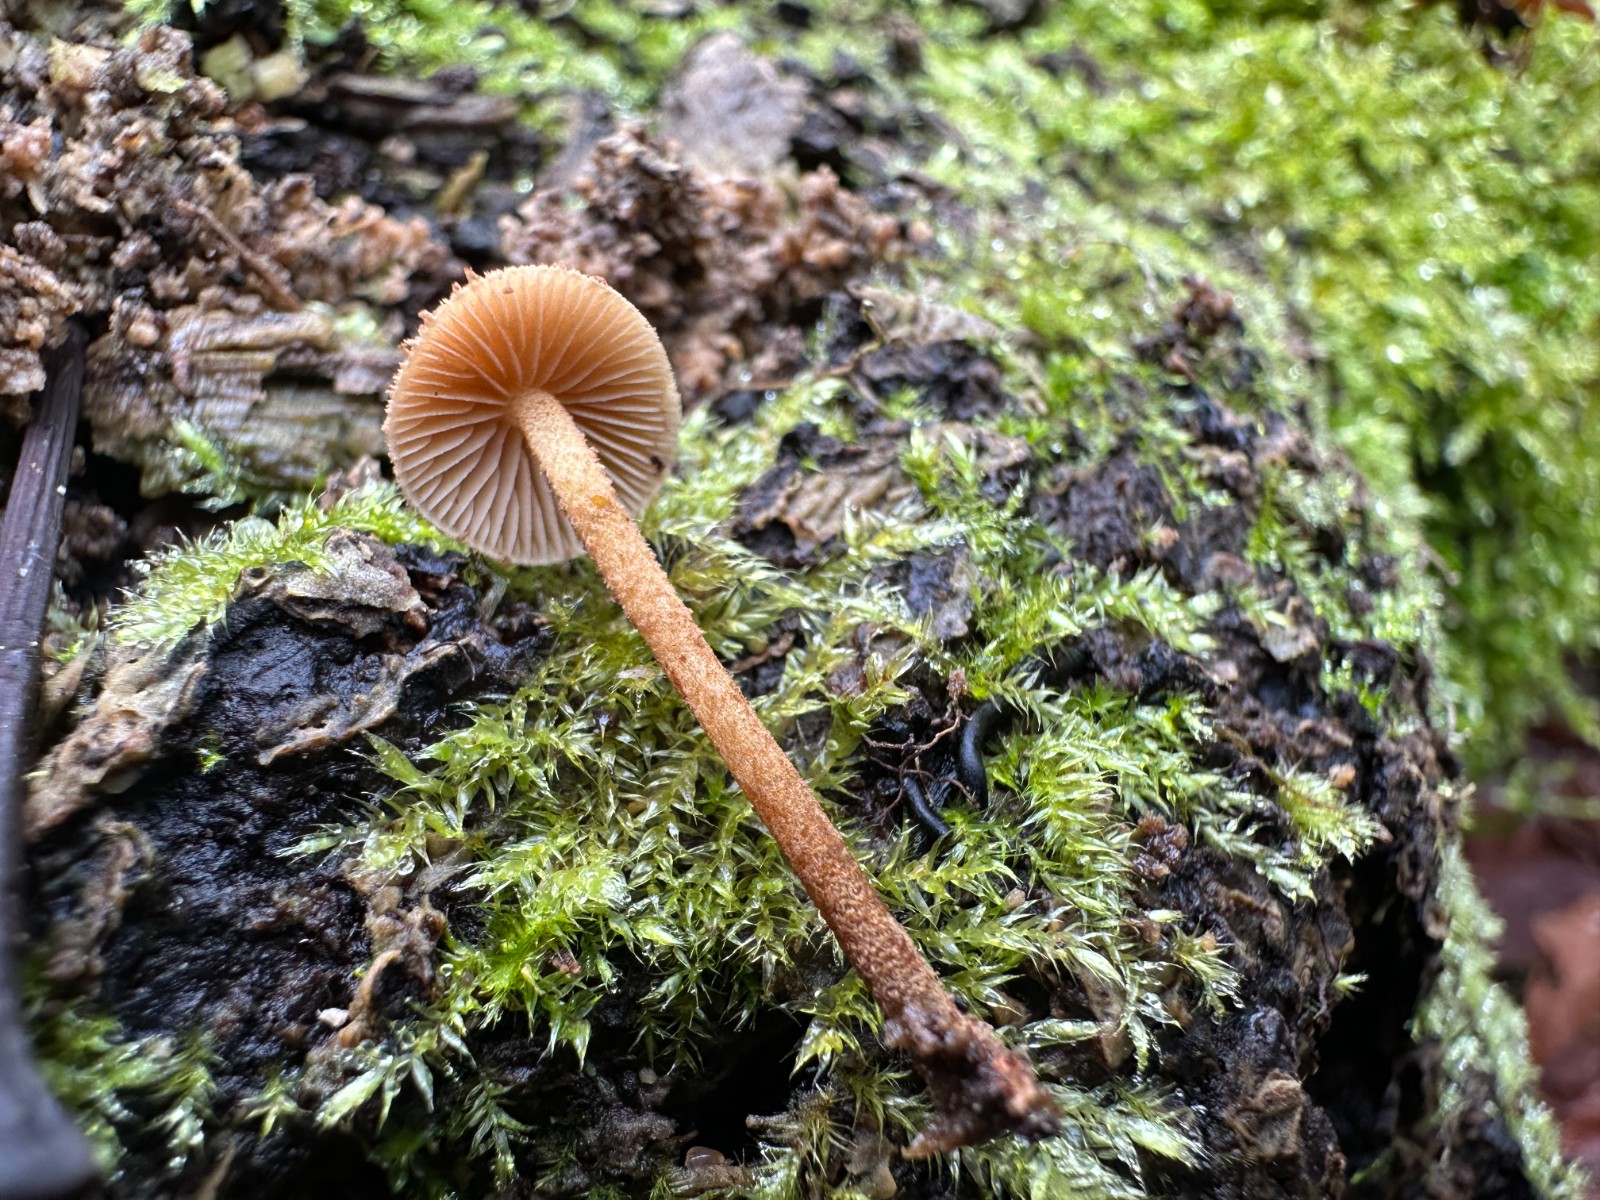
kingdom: Fungi
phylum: Basidiomycota
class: Agaricomycetes
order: Agaricales
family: Tubariaceae
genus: Flammulaster
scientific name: Flammulaster muricatus
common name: pigget grynskælhat
